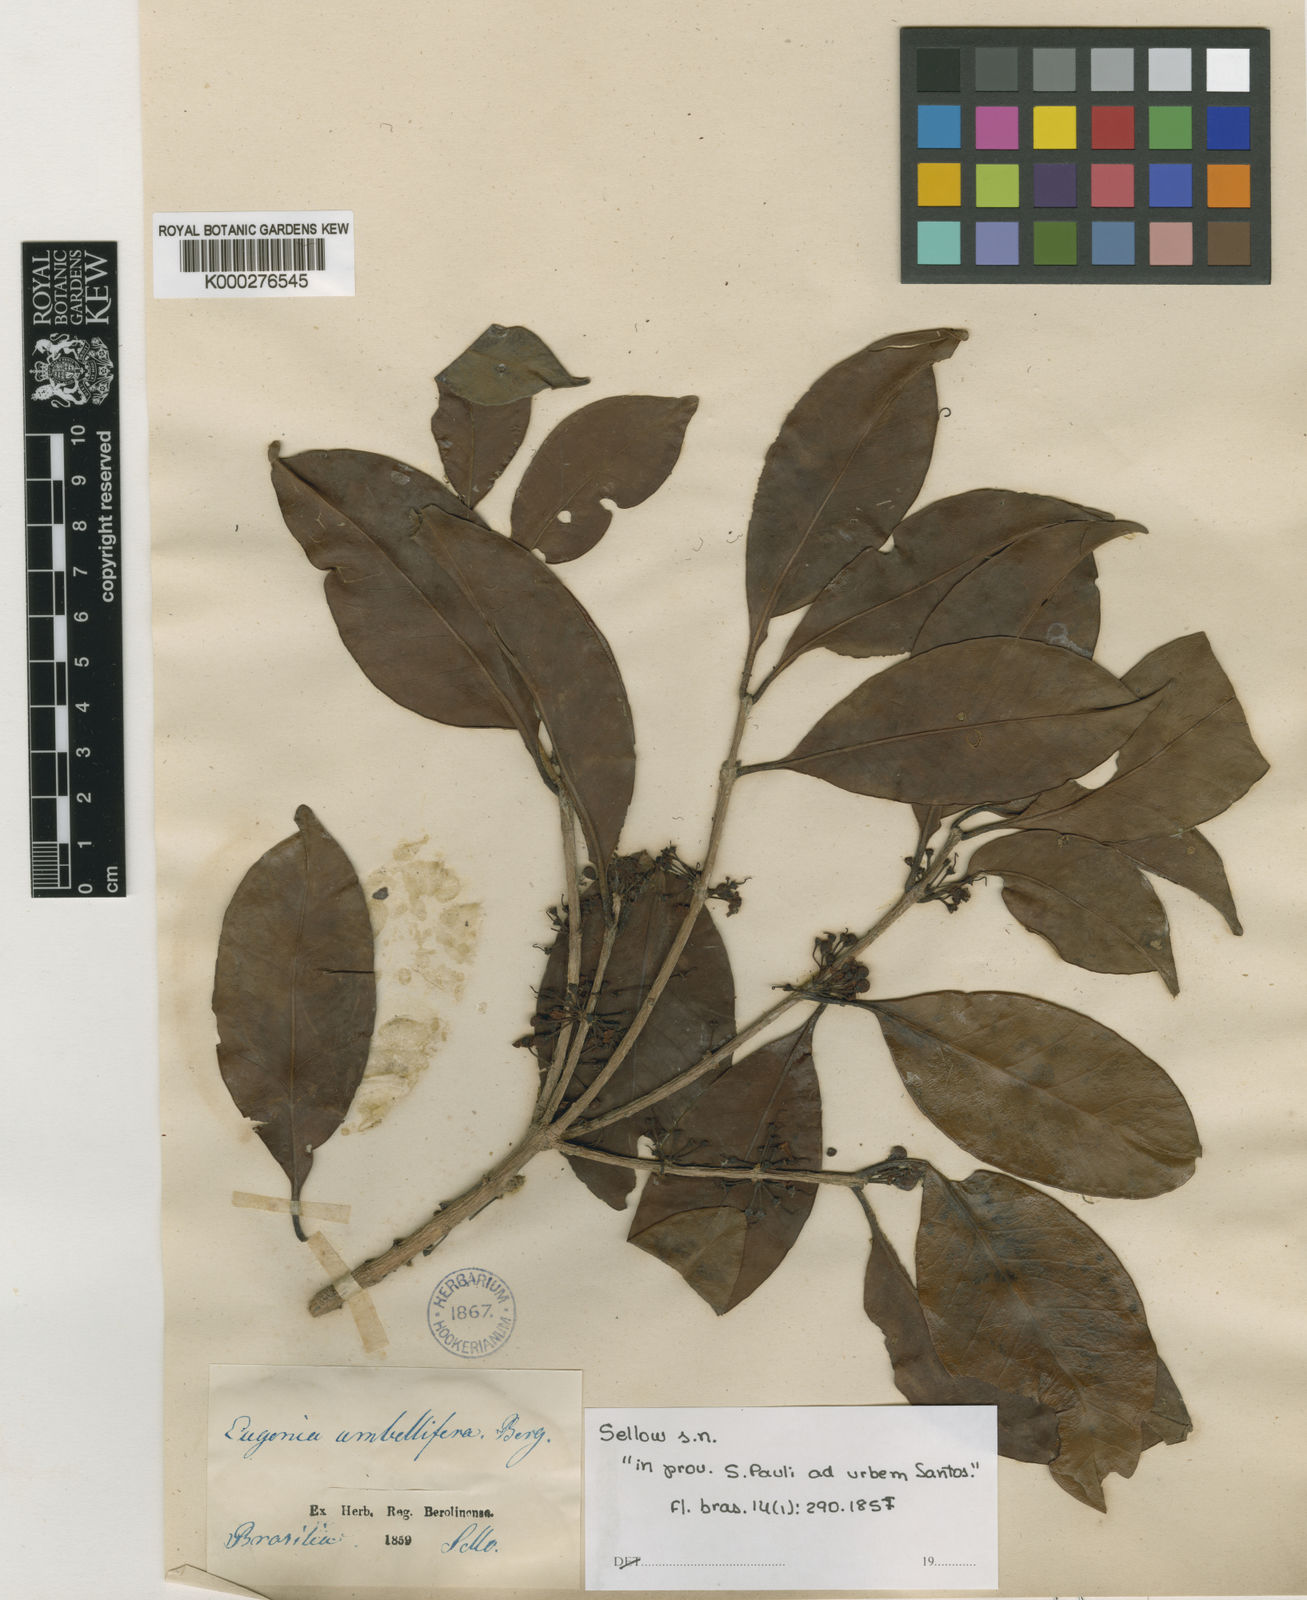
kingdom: Plantae
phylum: Tracheophyta
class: Magnoliopsida
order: Myrtales
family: Myrtaceae
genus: Eugenia
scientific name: Eugenia umbelliflora
